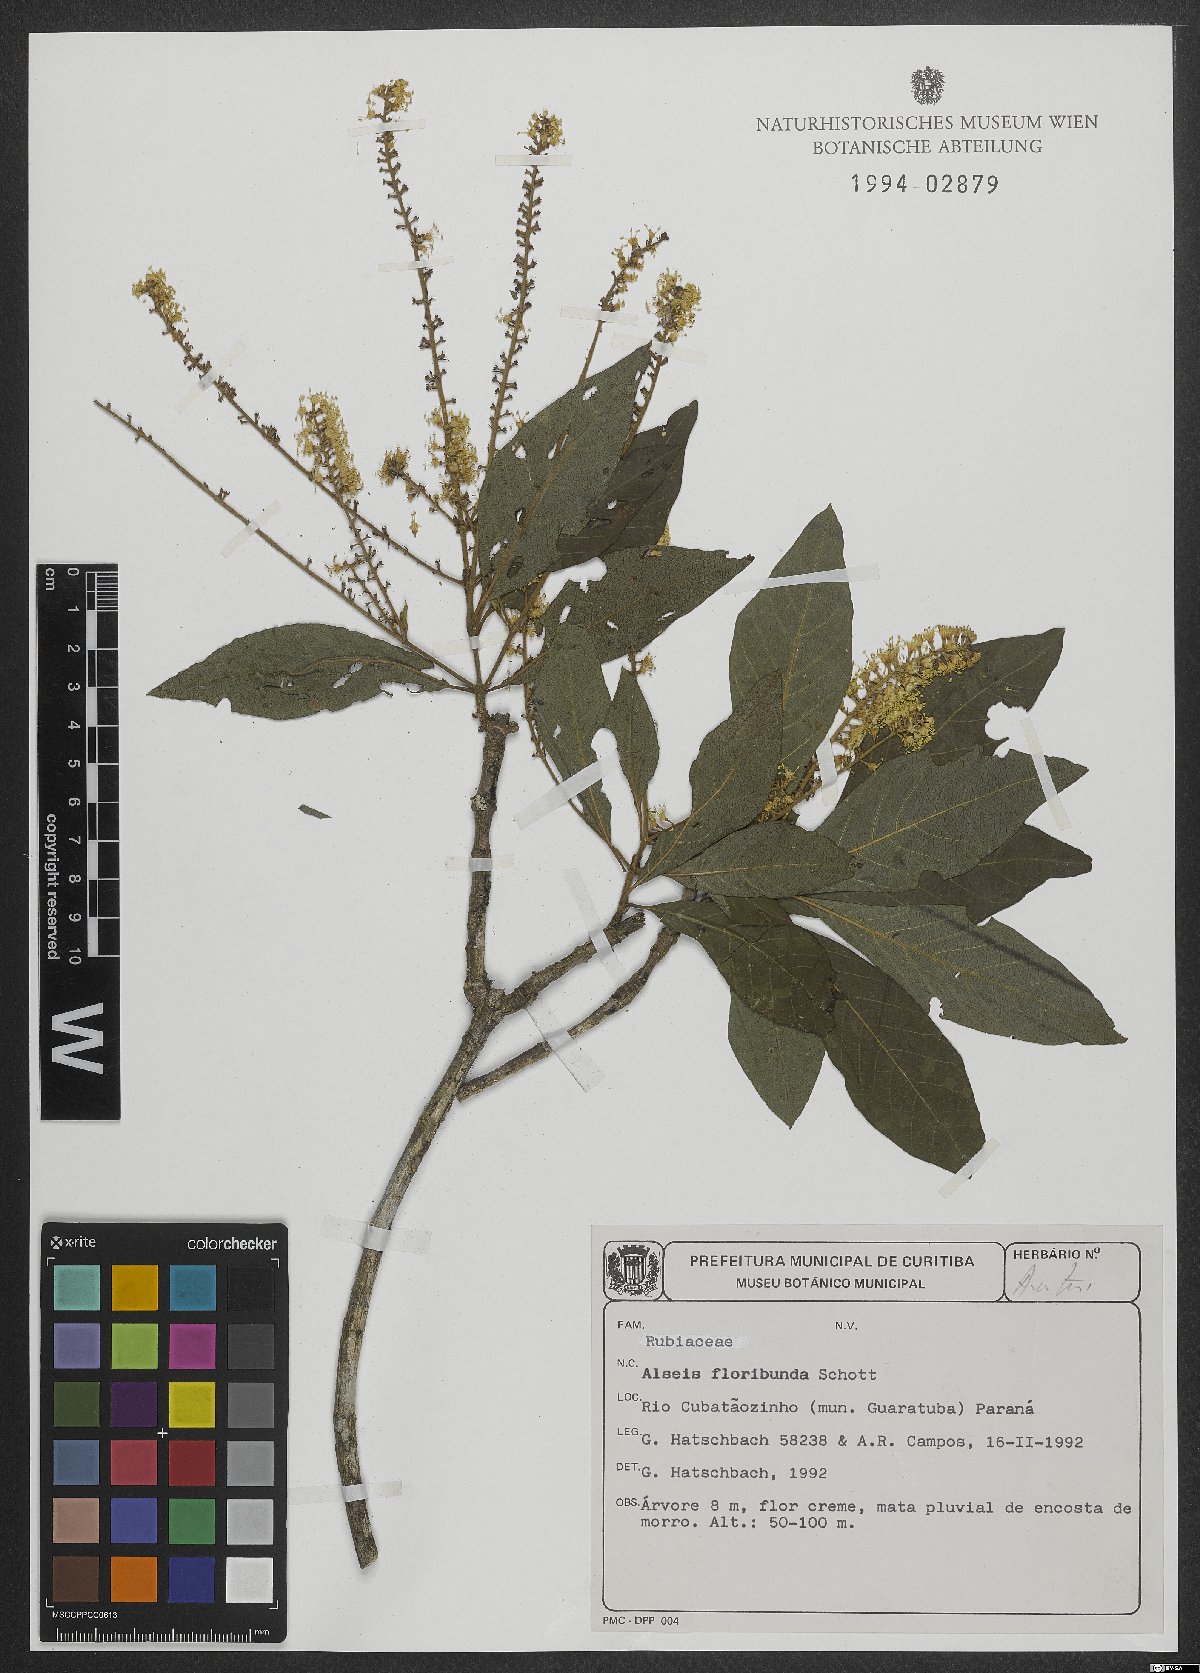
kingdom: Plantae
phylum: Tracheophyta
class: Magnoliopsida
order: Gentianales
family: Rubiaceae
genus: Alseis
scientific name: Alseis floribunda
